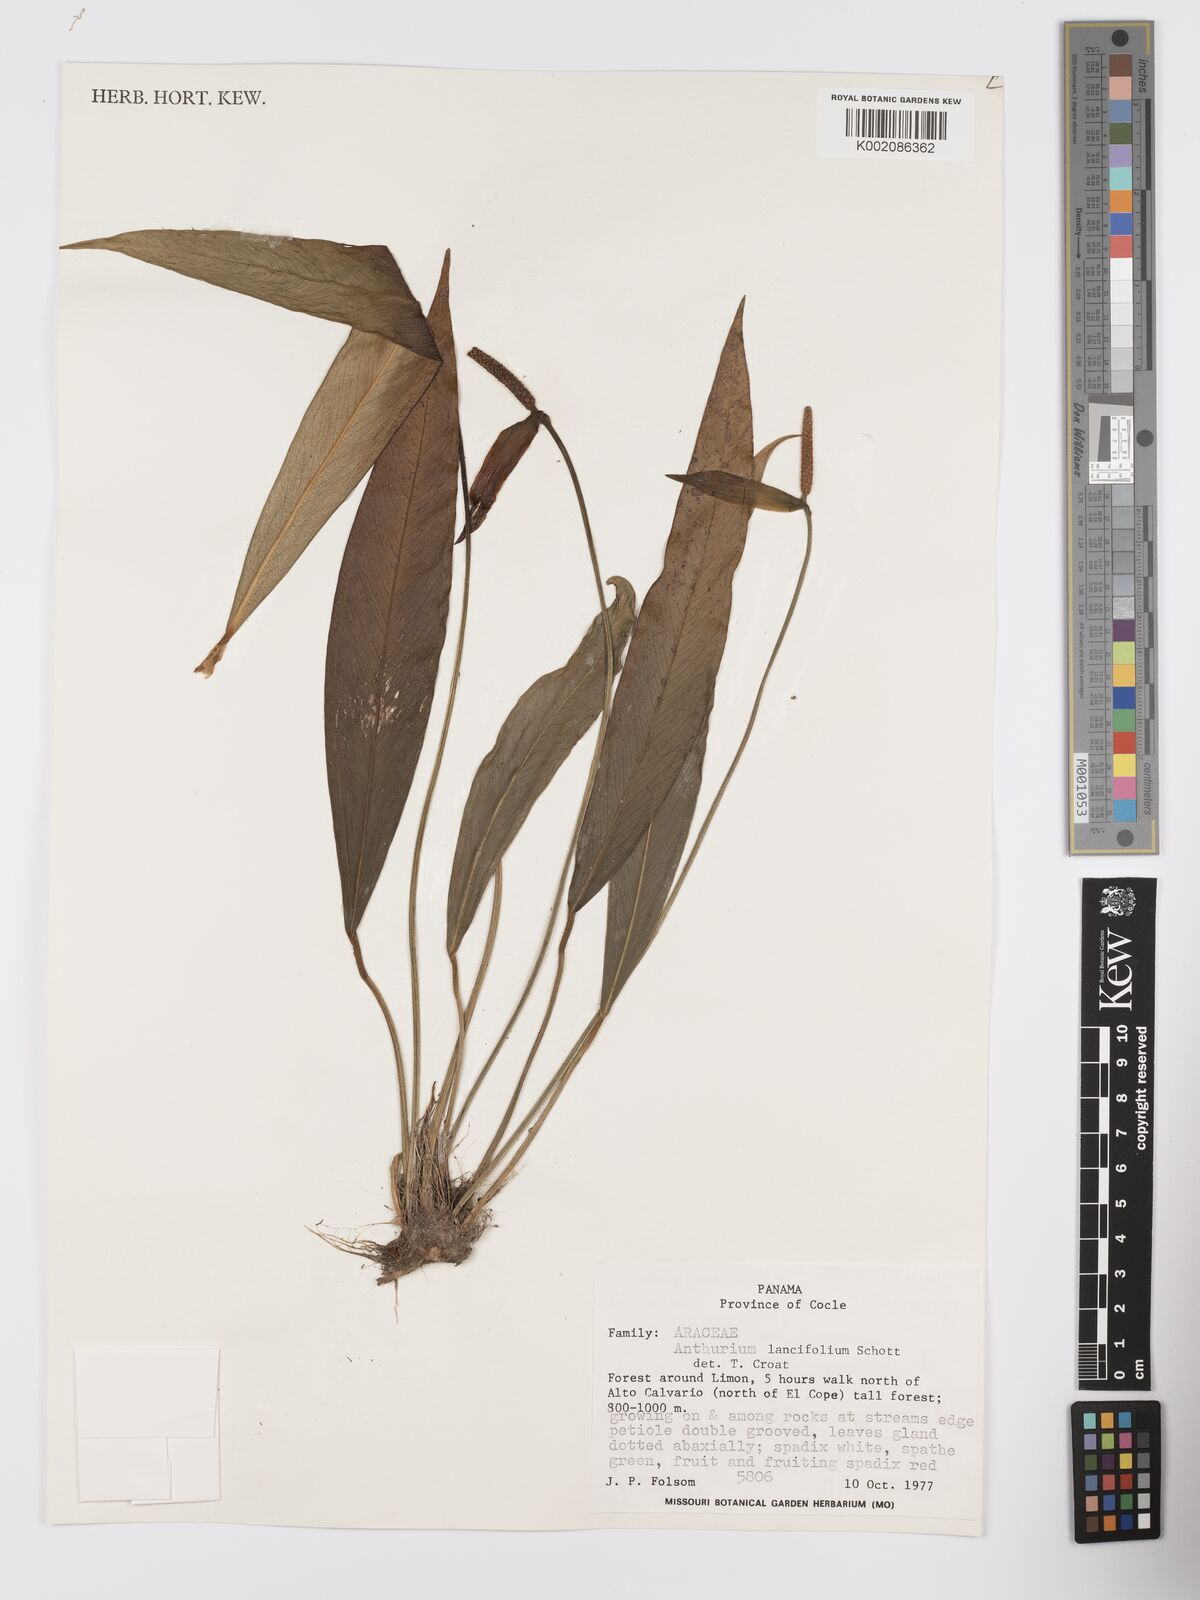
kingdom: Plantae
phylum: Tracheophyta
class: Liliopsida
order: Alismatales
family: Araceae
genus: Anthurium
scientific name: Anthurium lancifolium
